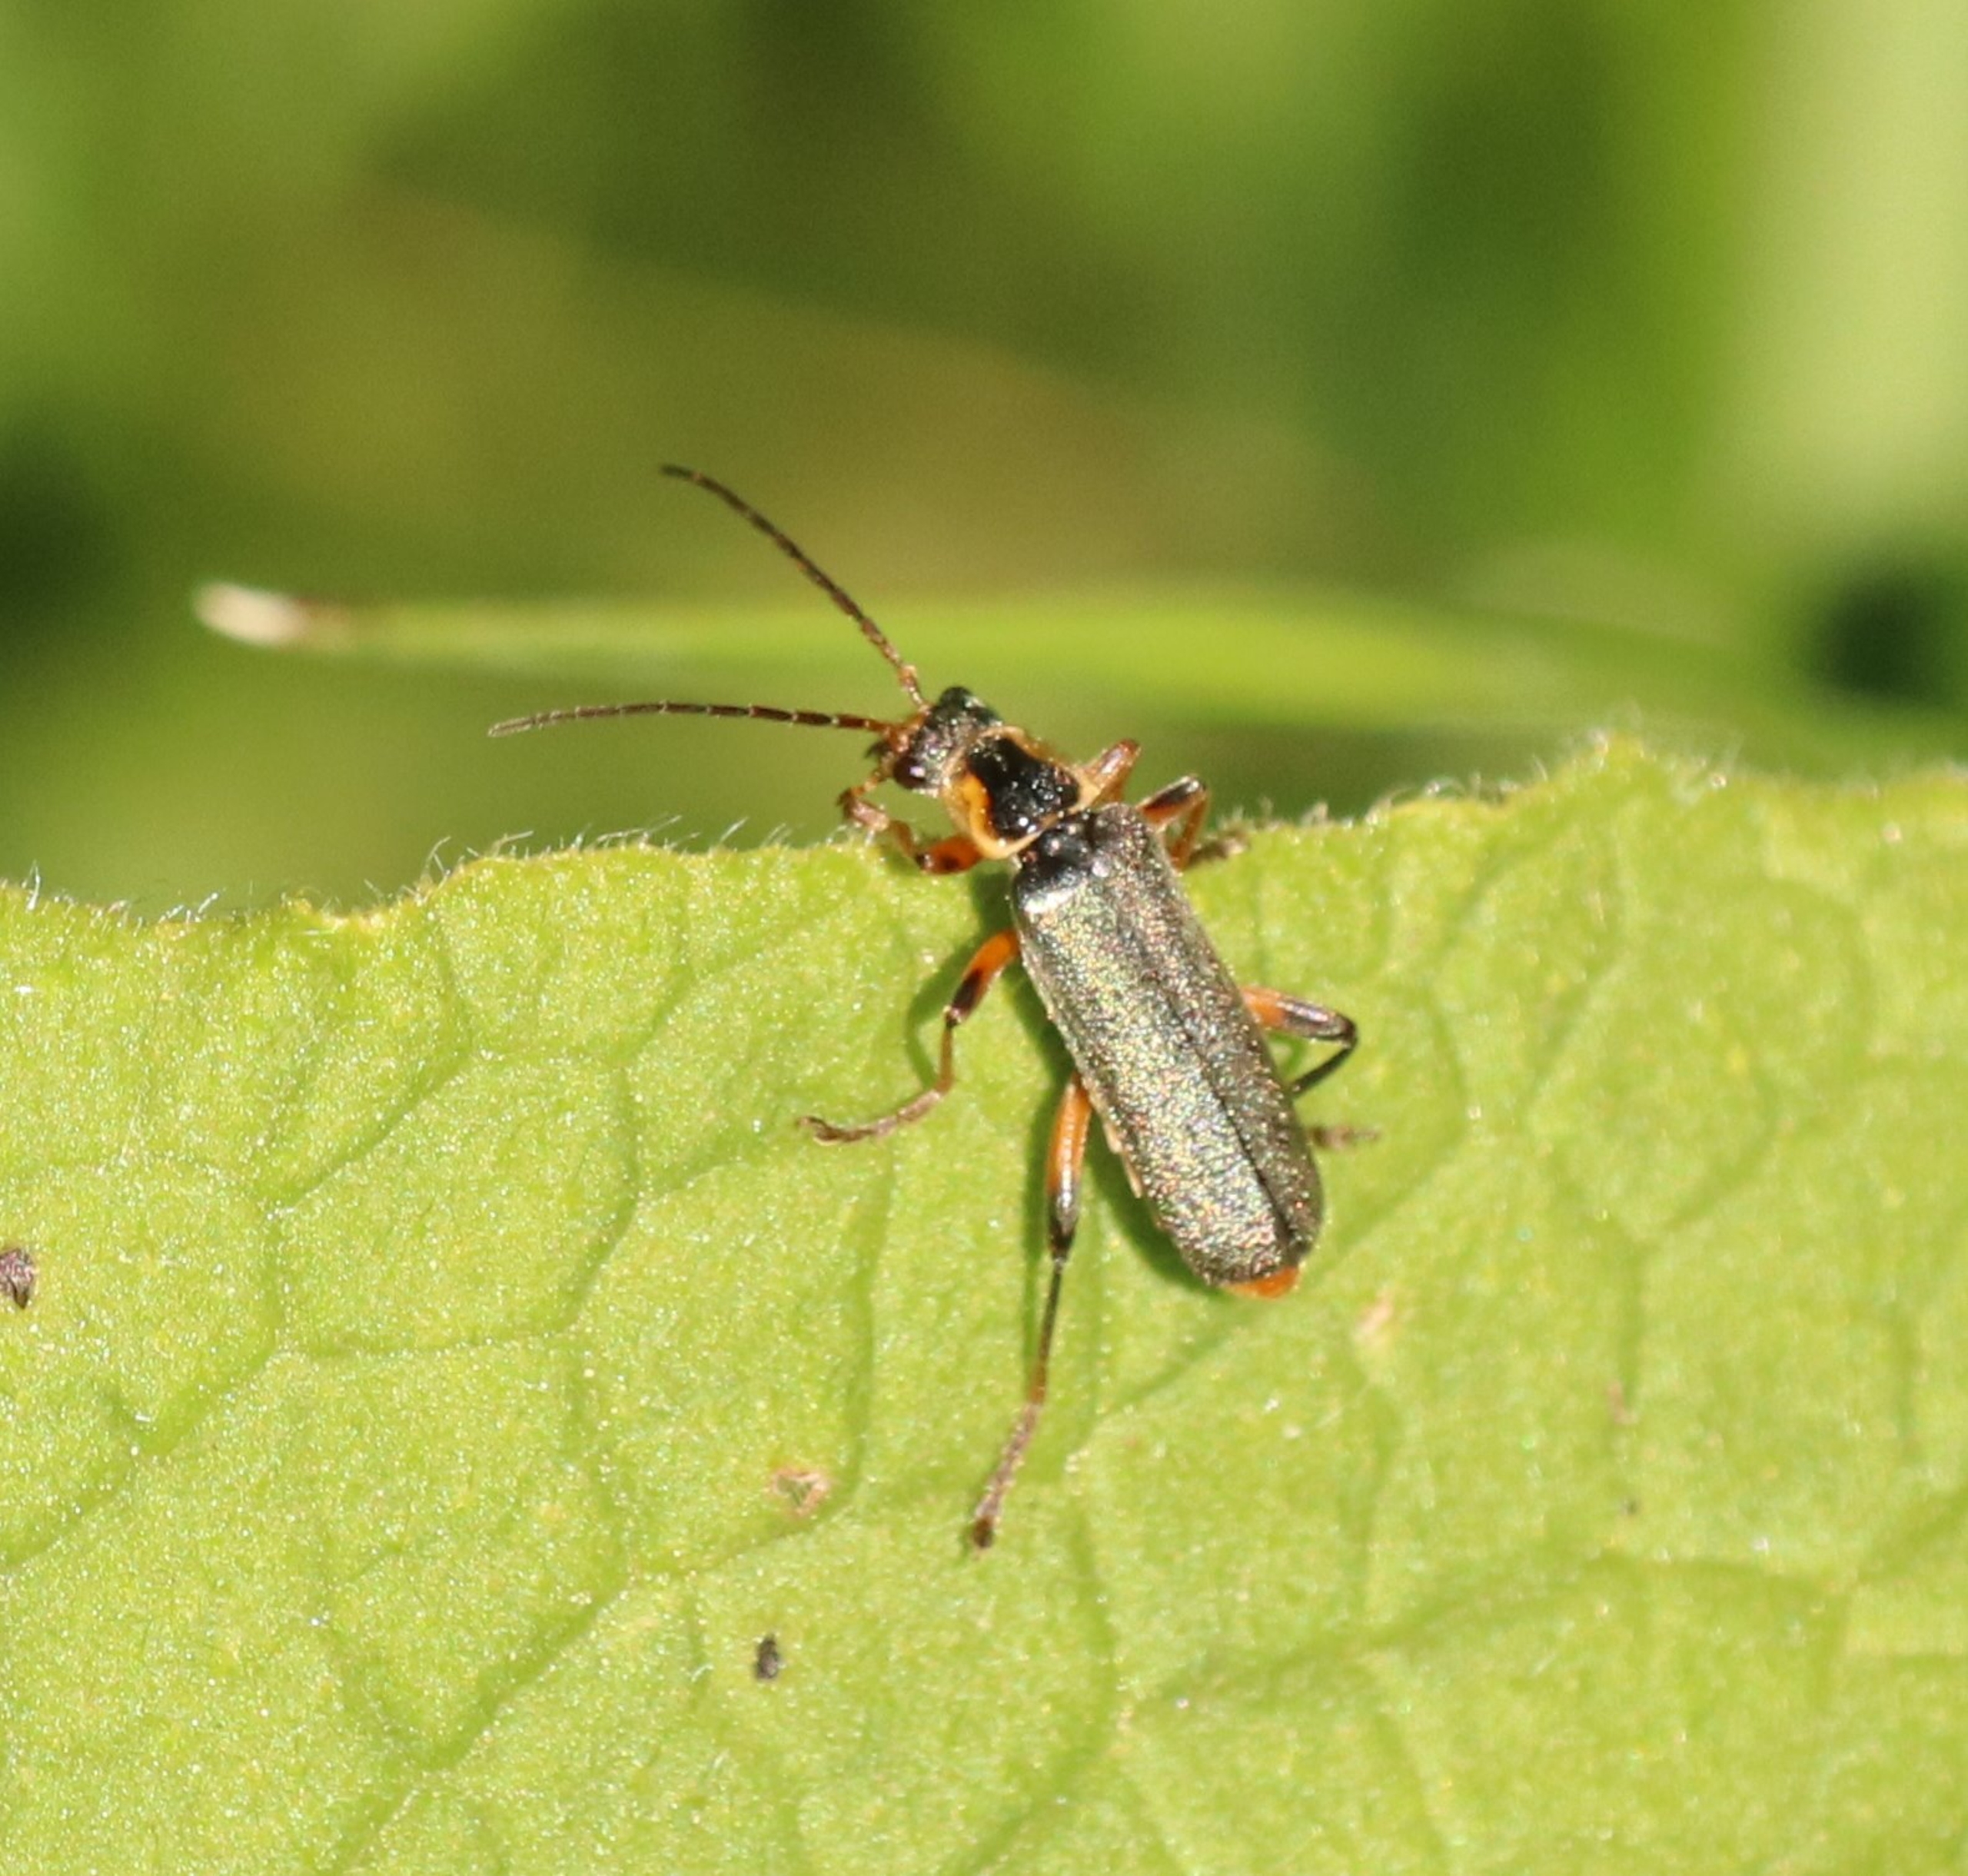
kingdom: Animalia
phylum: Arthropoda
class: Insecta
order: Coleoptera
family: Cantharidae
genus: Cantharis
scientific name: Cantharis nigricans
